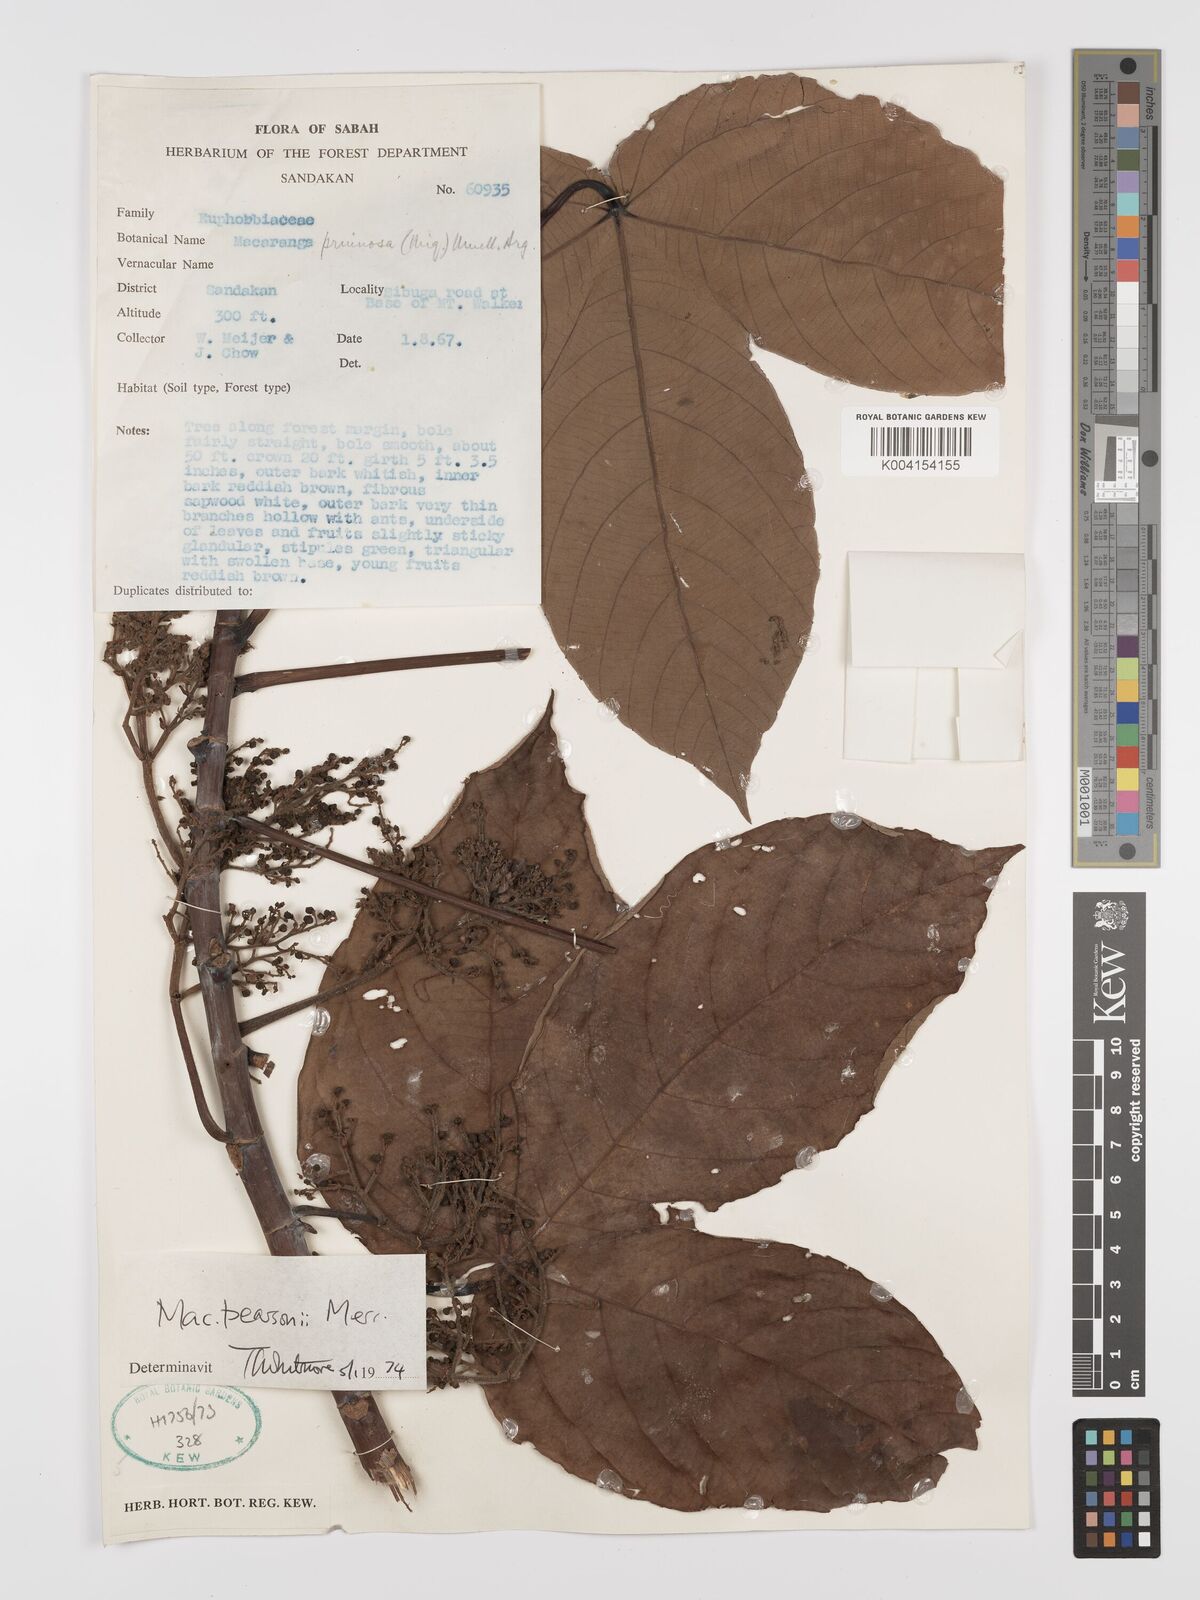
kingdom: Plantae
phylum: Tracheophyta
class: Magnoliopsida
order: Malpighiales
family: Euphorbiaceae
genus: Macaranga
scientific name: Macaranga pearsonii
